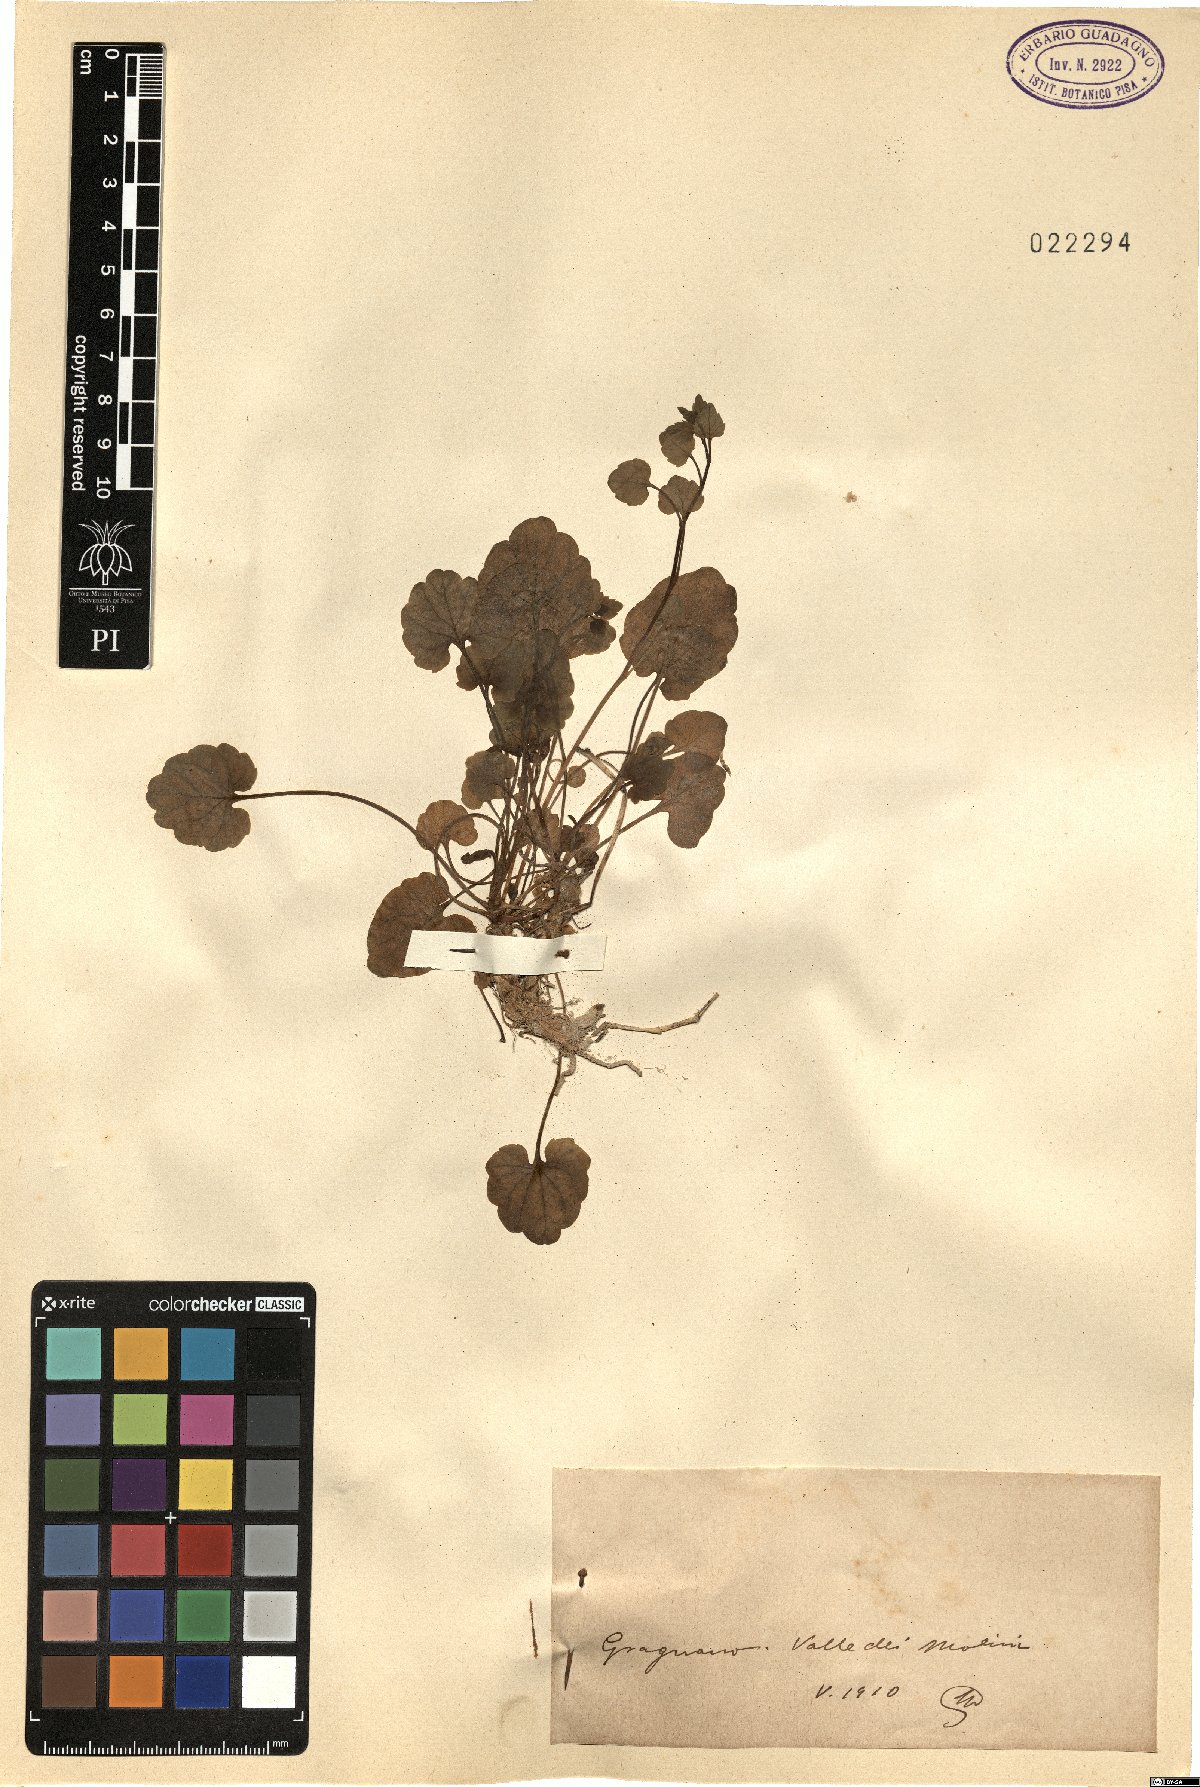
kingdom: Plantae
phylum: Tracheophyta
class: Magnoliopsida
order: Asterales
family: Campanulaceae
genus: Campanula
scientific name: Campanula
